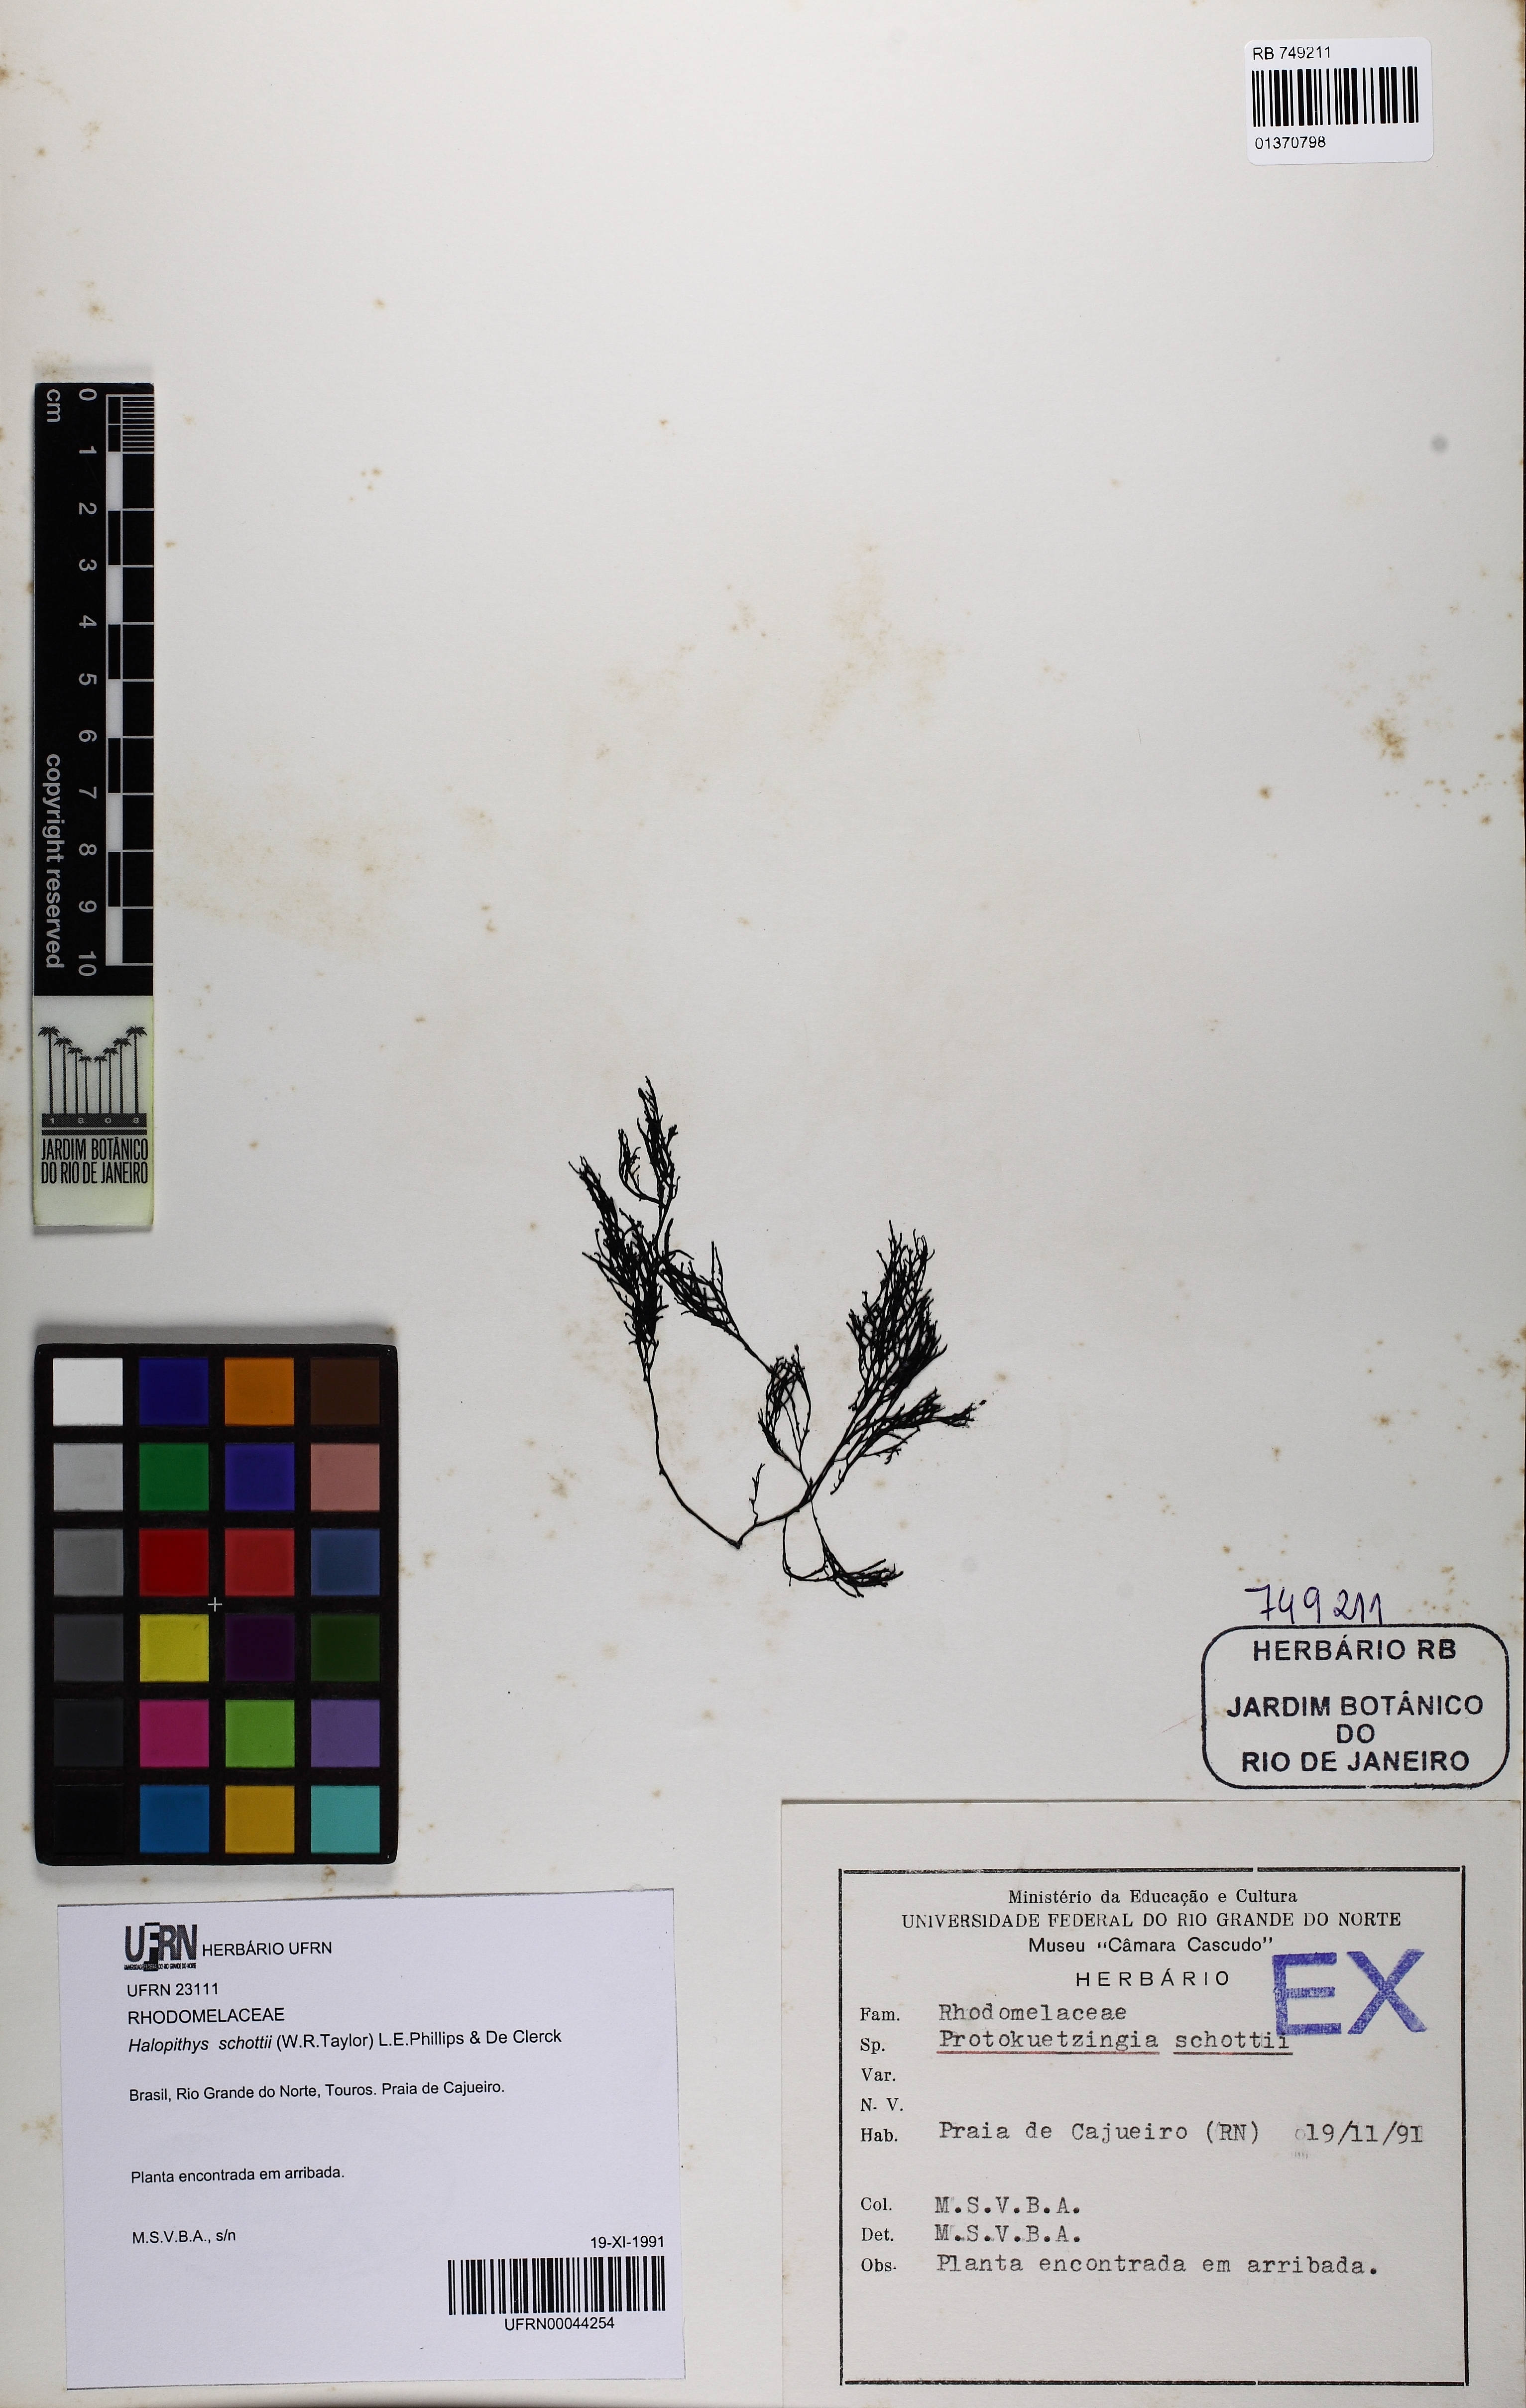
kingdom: Plantae
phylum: Rhodophyta
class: Florideophyceae
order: Ceramiales
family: Rhodomelaceae
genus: Halopithys
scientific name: Halopithys schottii
